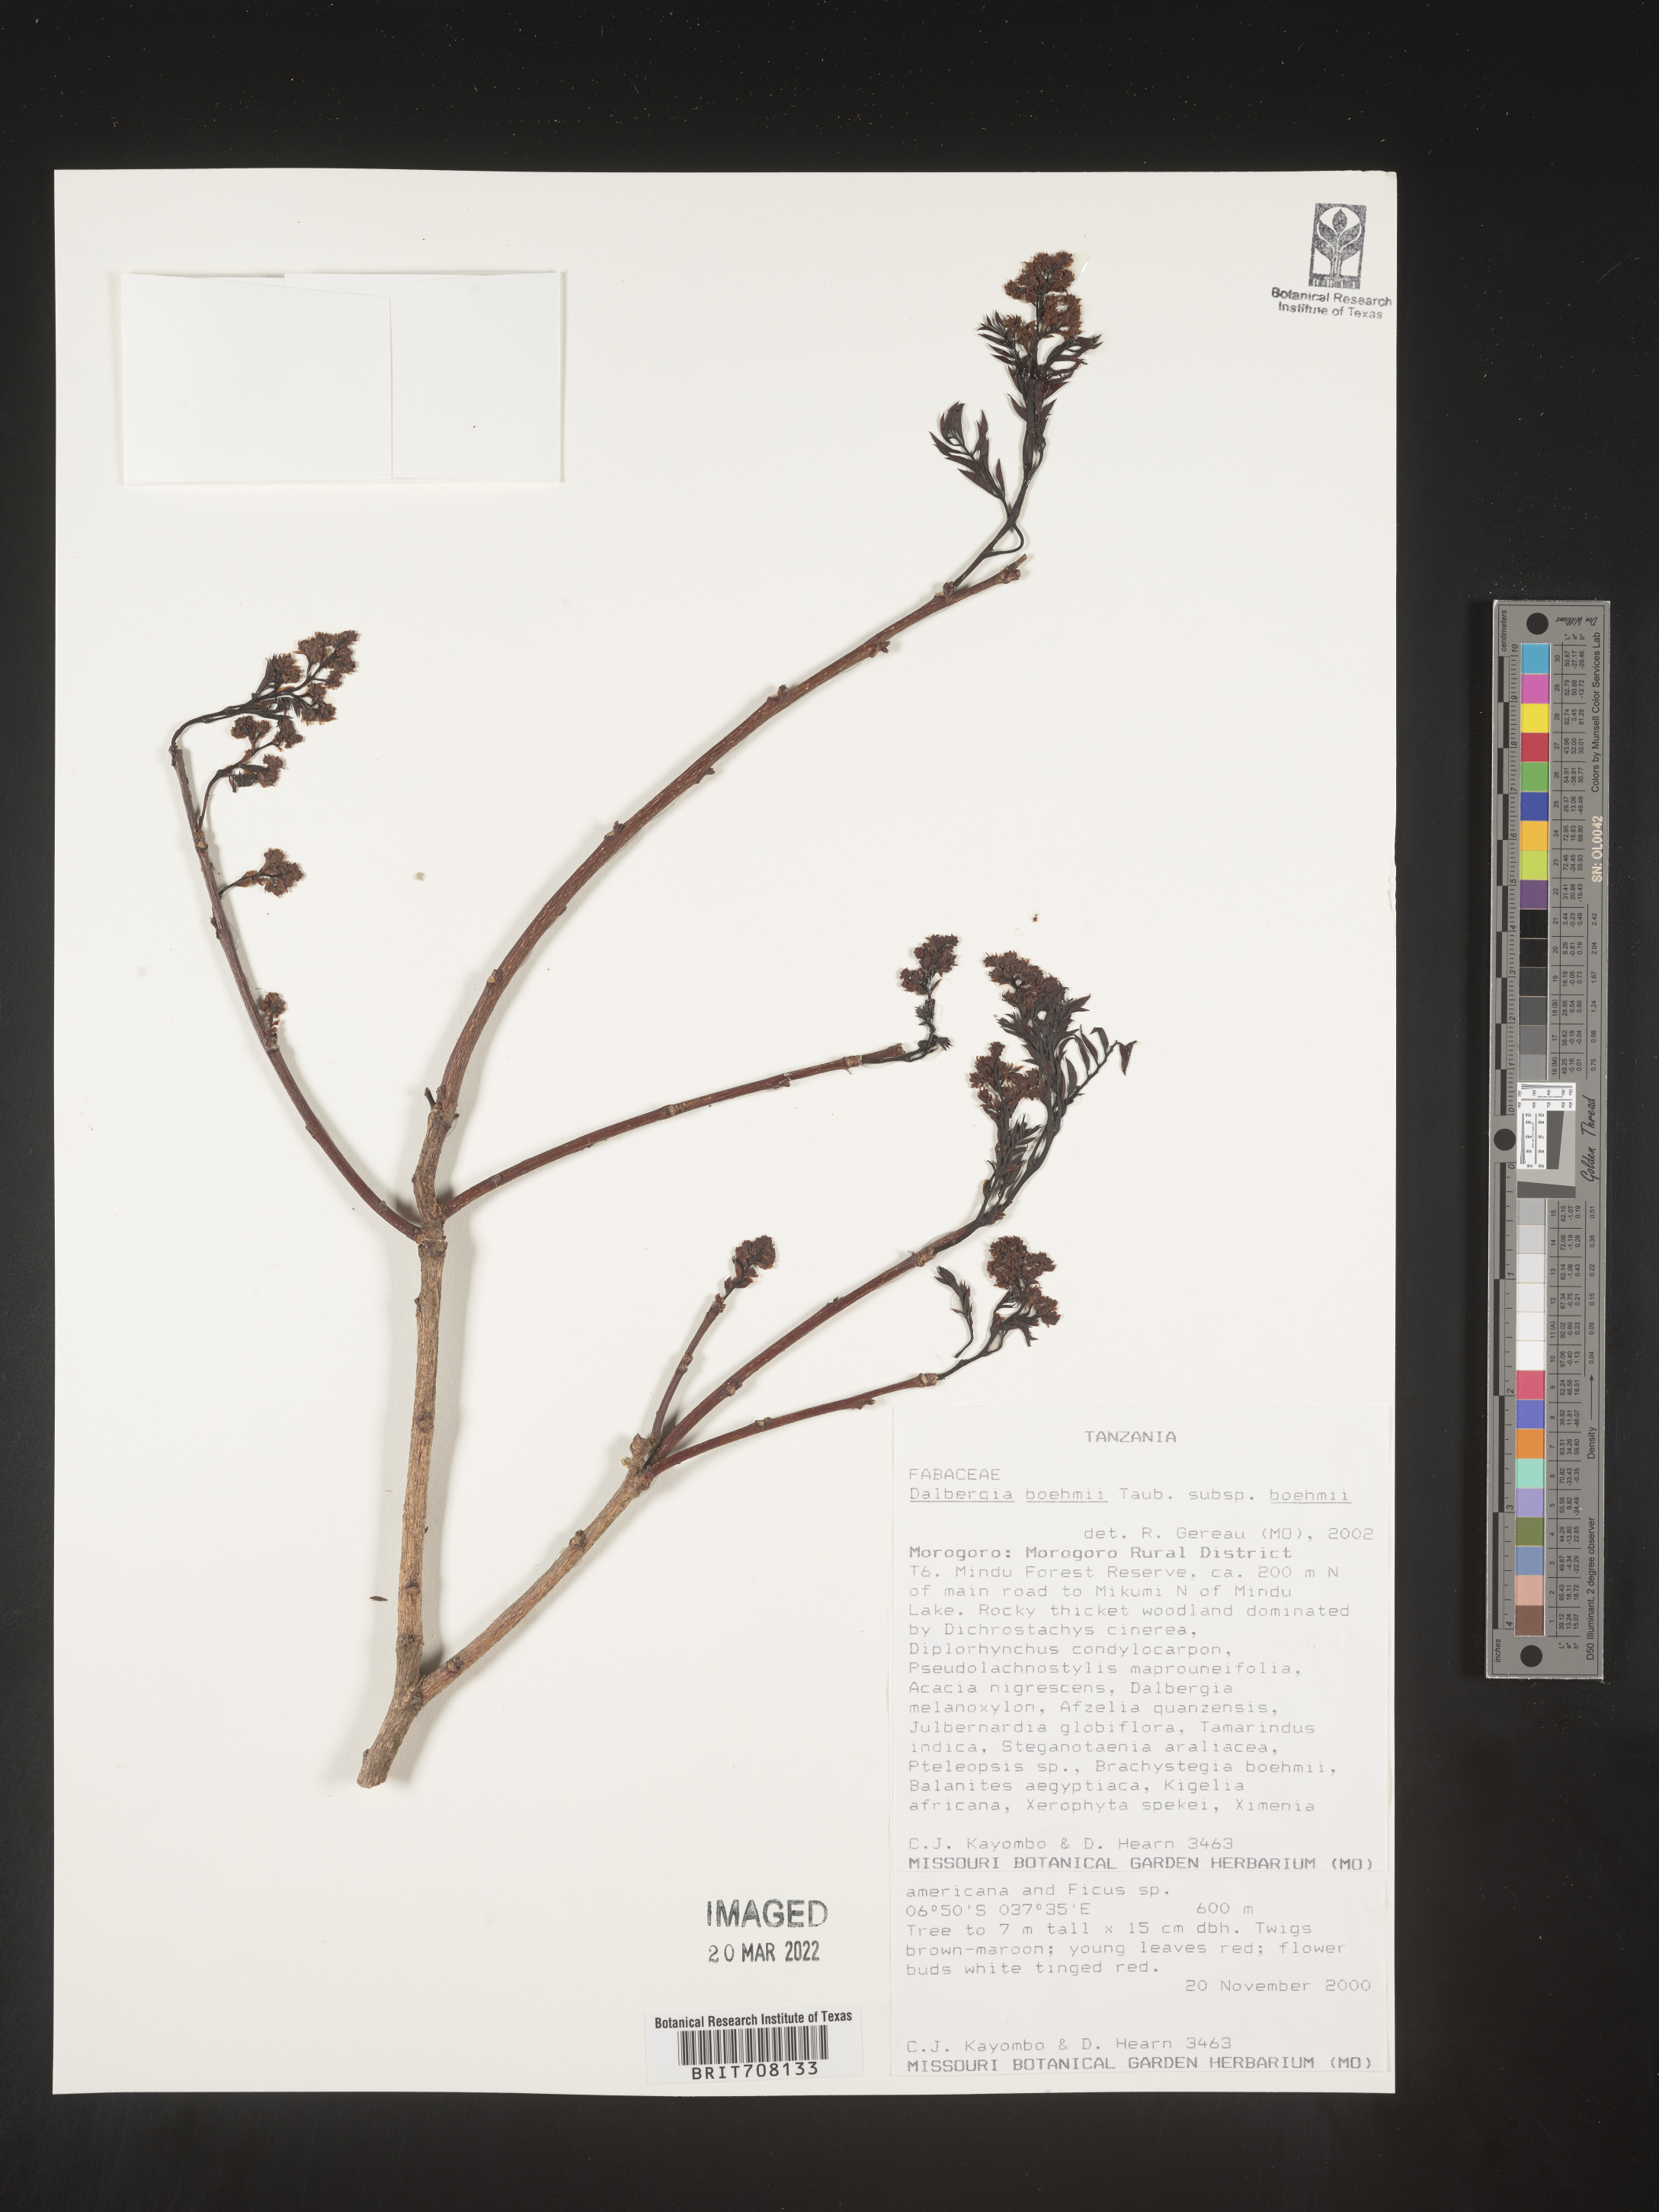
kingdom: Plantae
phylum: Tracheophyta
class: Magnoliopsida
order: Fabales
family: Fabaceae
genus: Dalbergia
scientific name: Dalbergia
